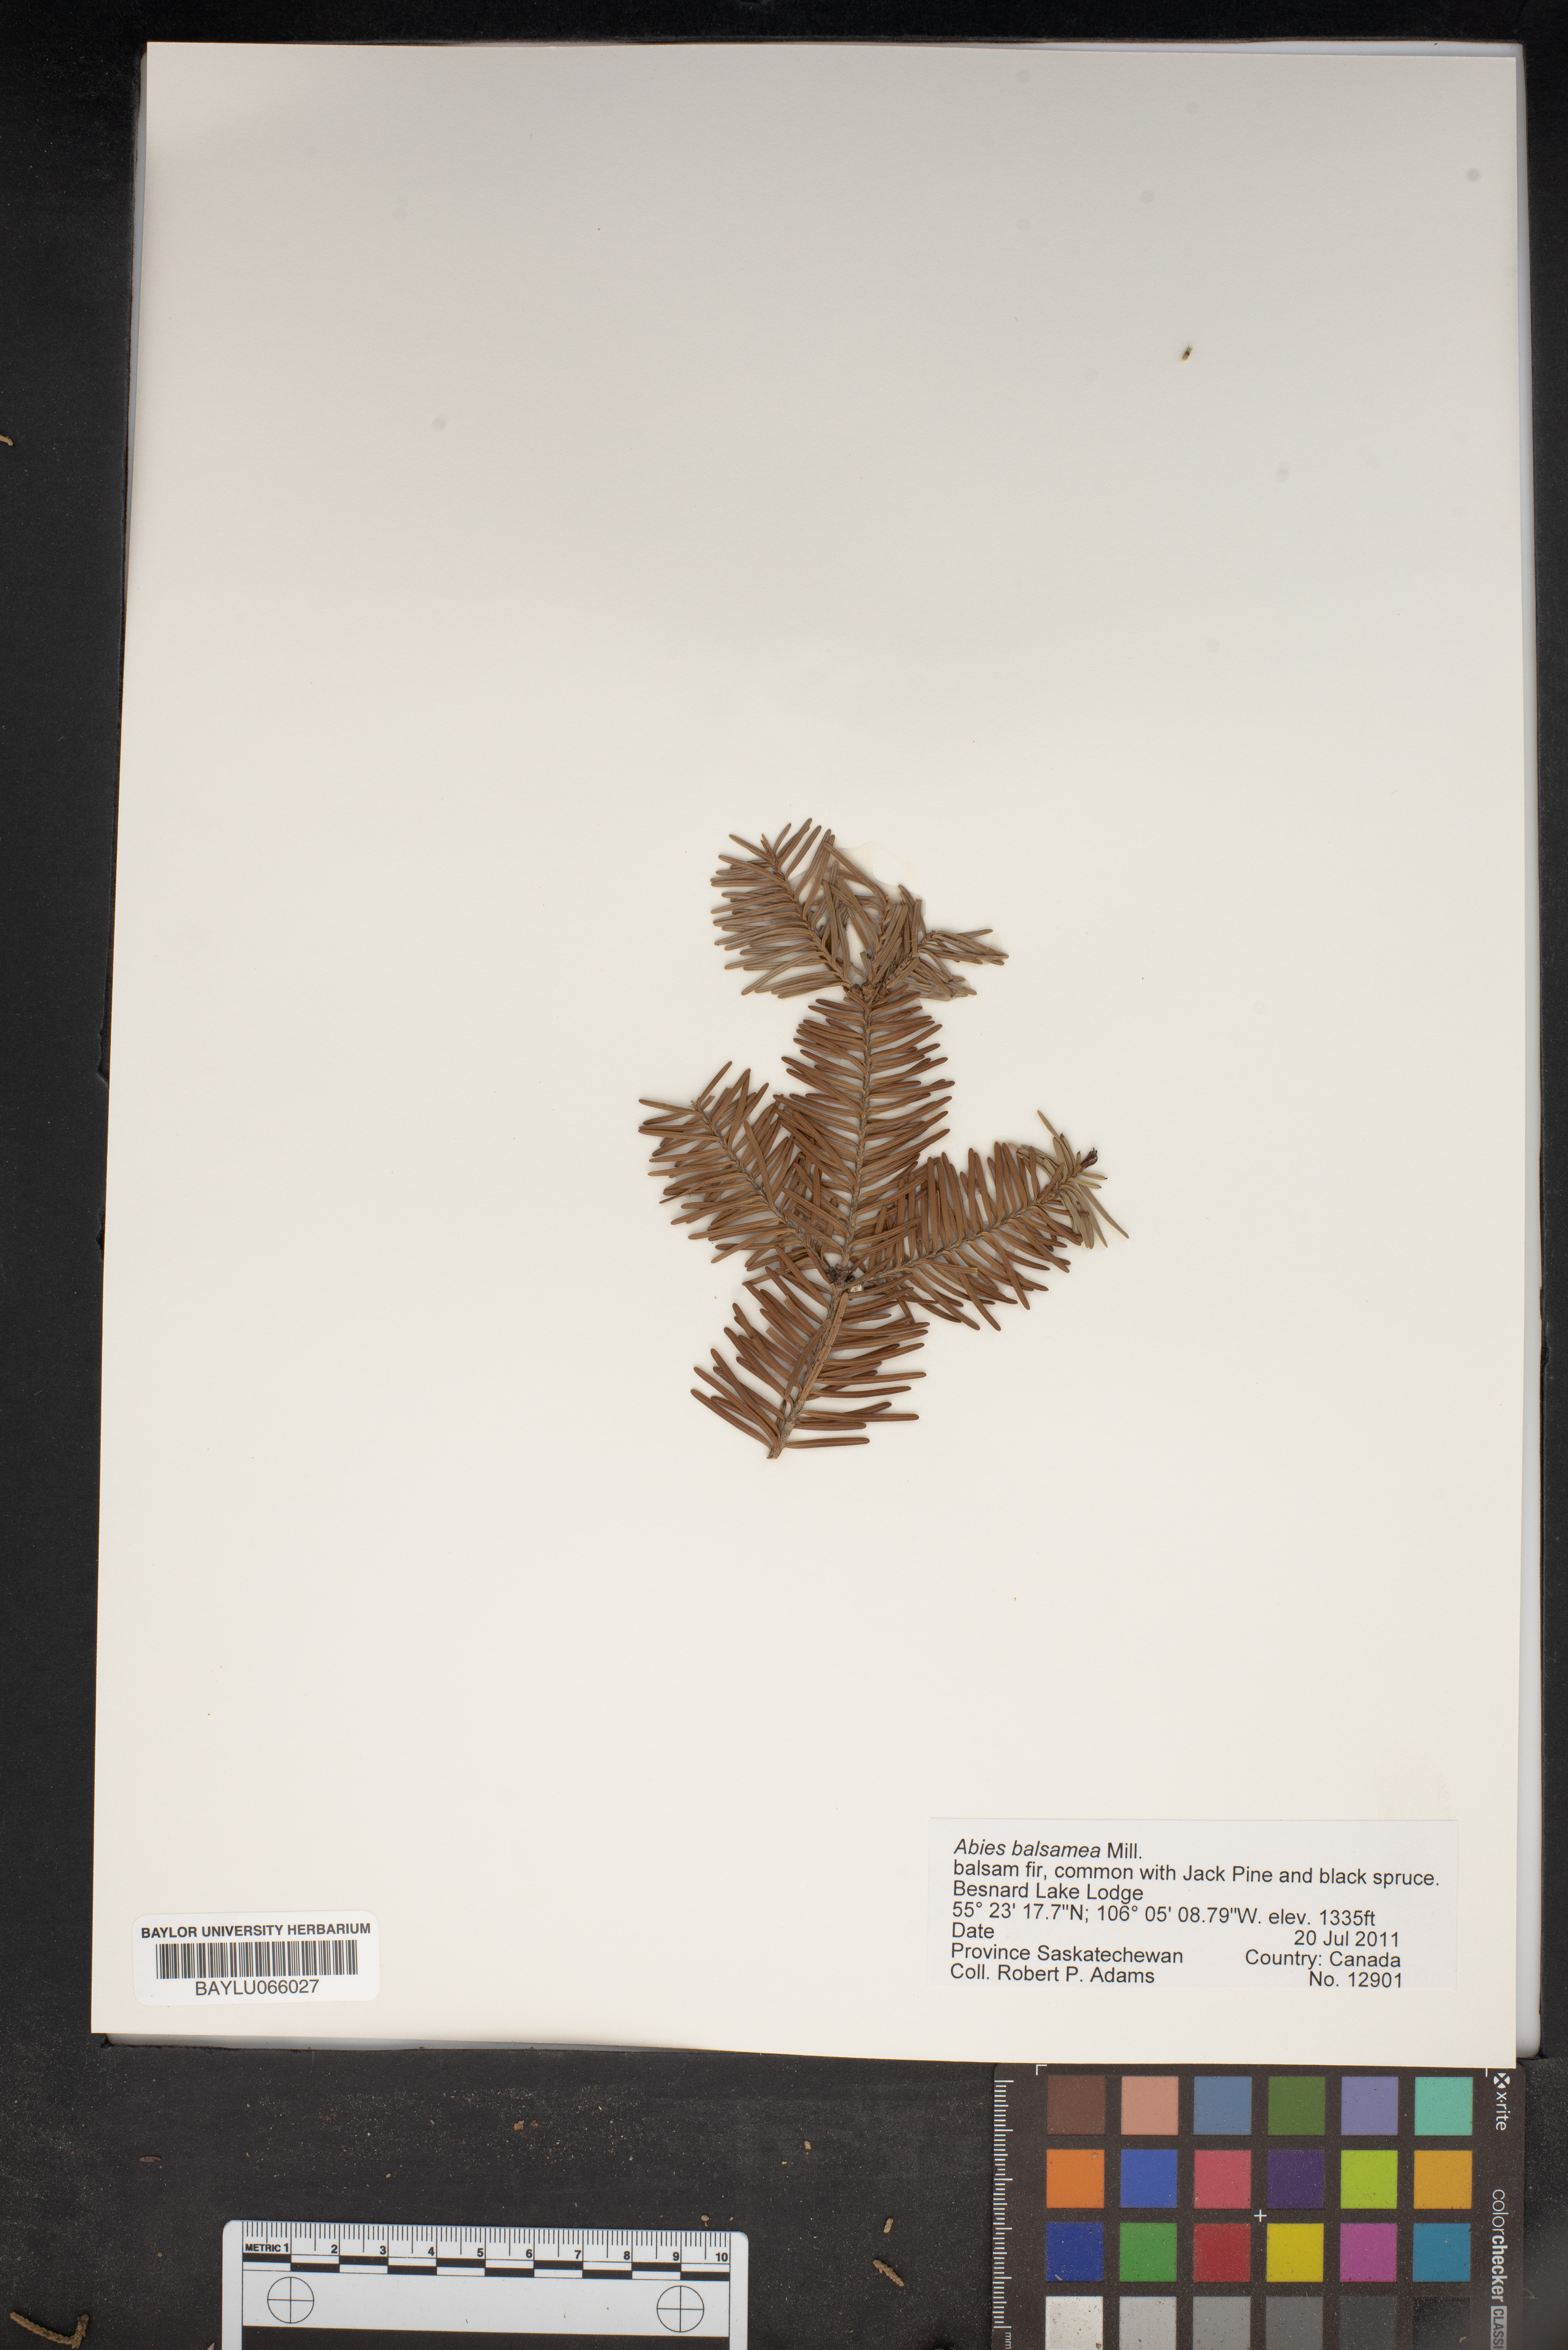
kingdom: Plantae
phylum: Tracheophyta
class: Pinopsida
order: Pinales
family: Pinaceae
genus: Abies
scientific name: Abies balsamea
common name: Balsam fir
